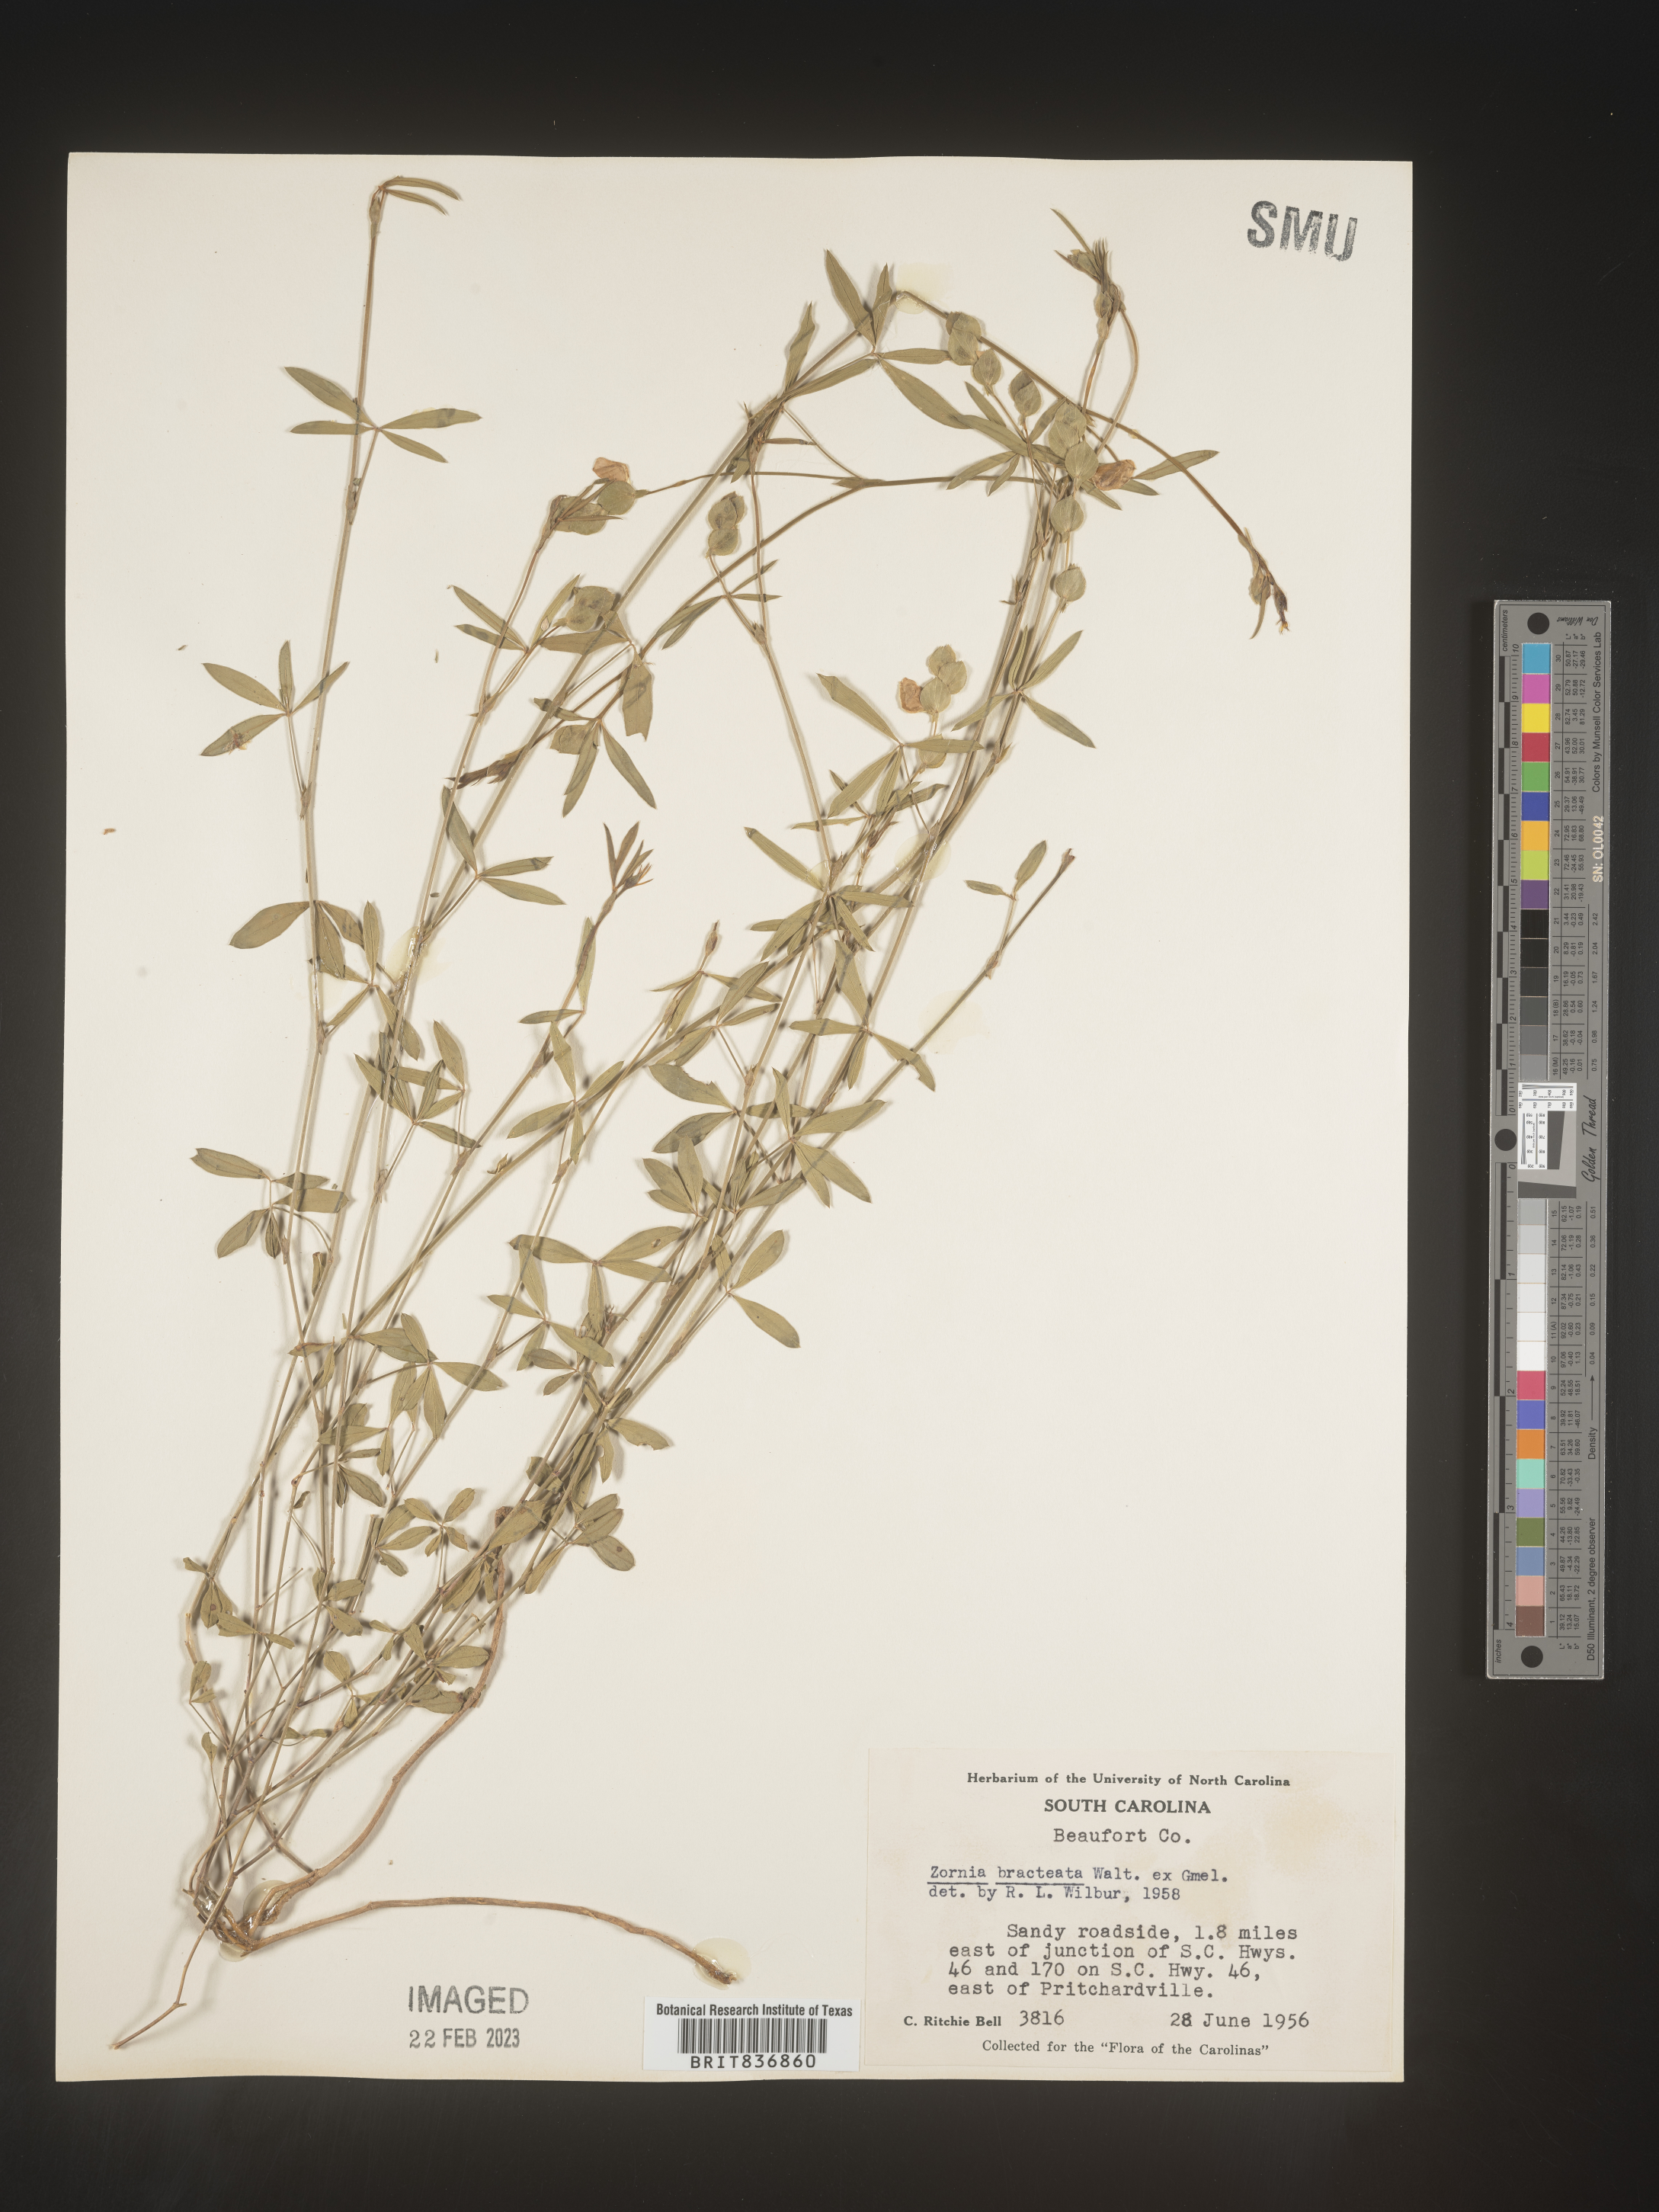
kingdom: Plantae
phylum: Tracheophyta
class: Magnoliopsida
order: Fabales
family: Fabaceae
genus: Zornia
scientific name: Zornia
